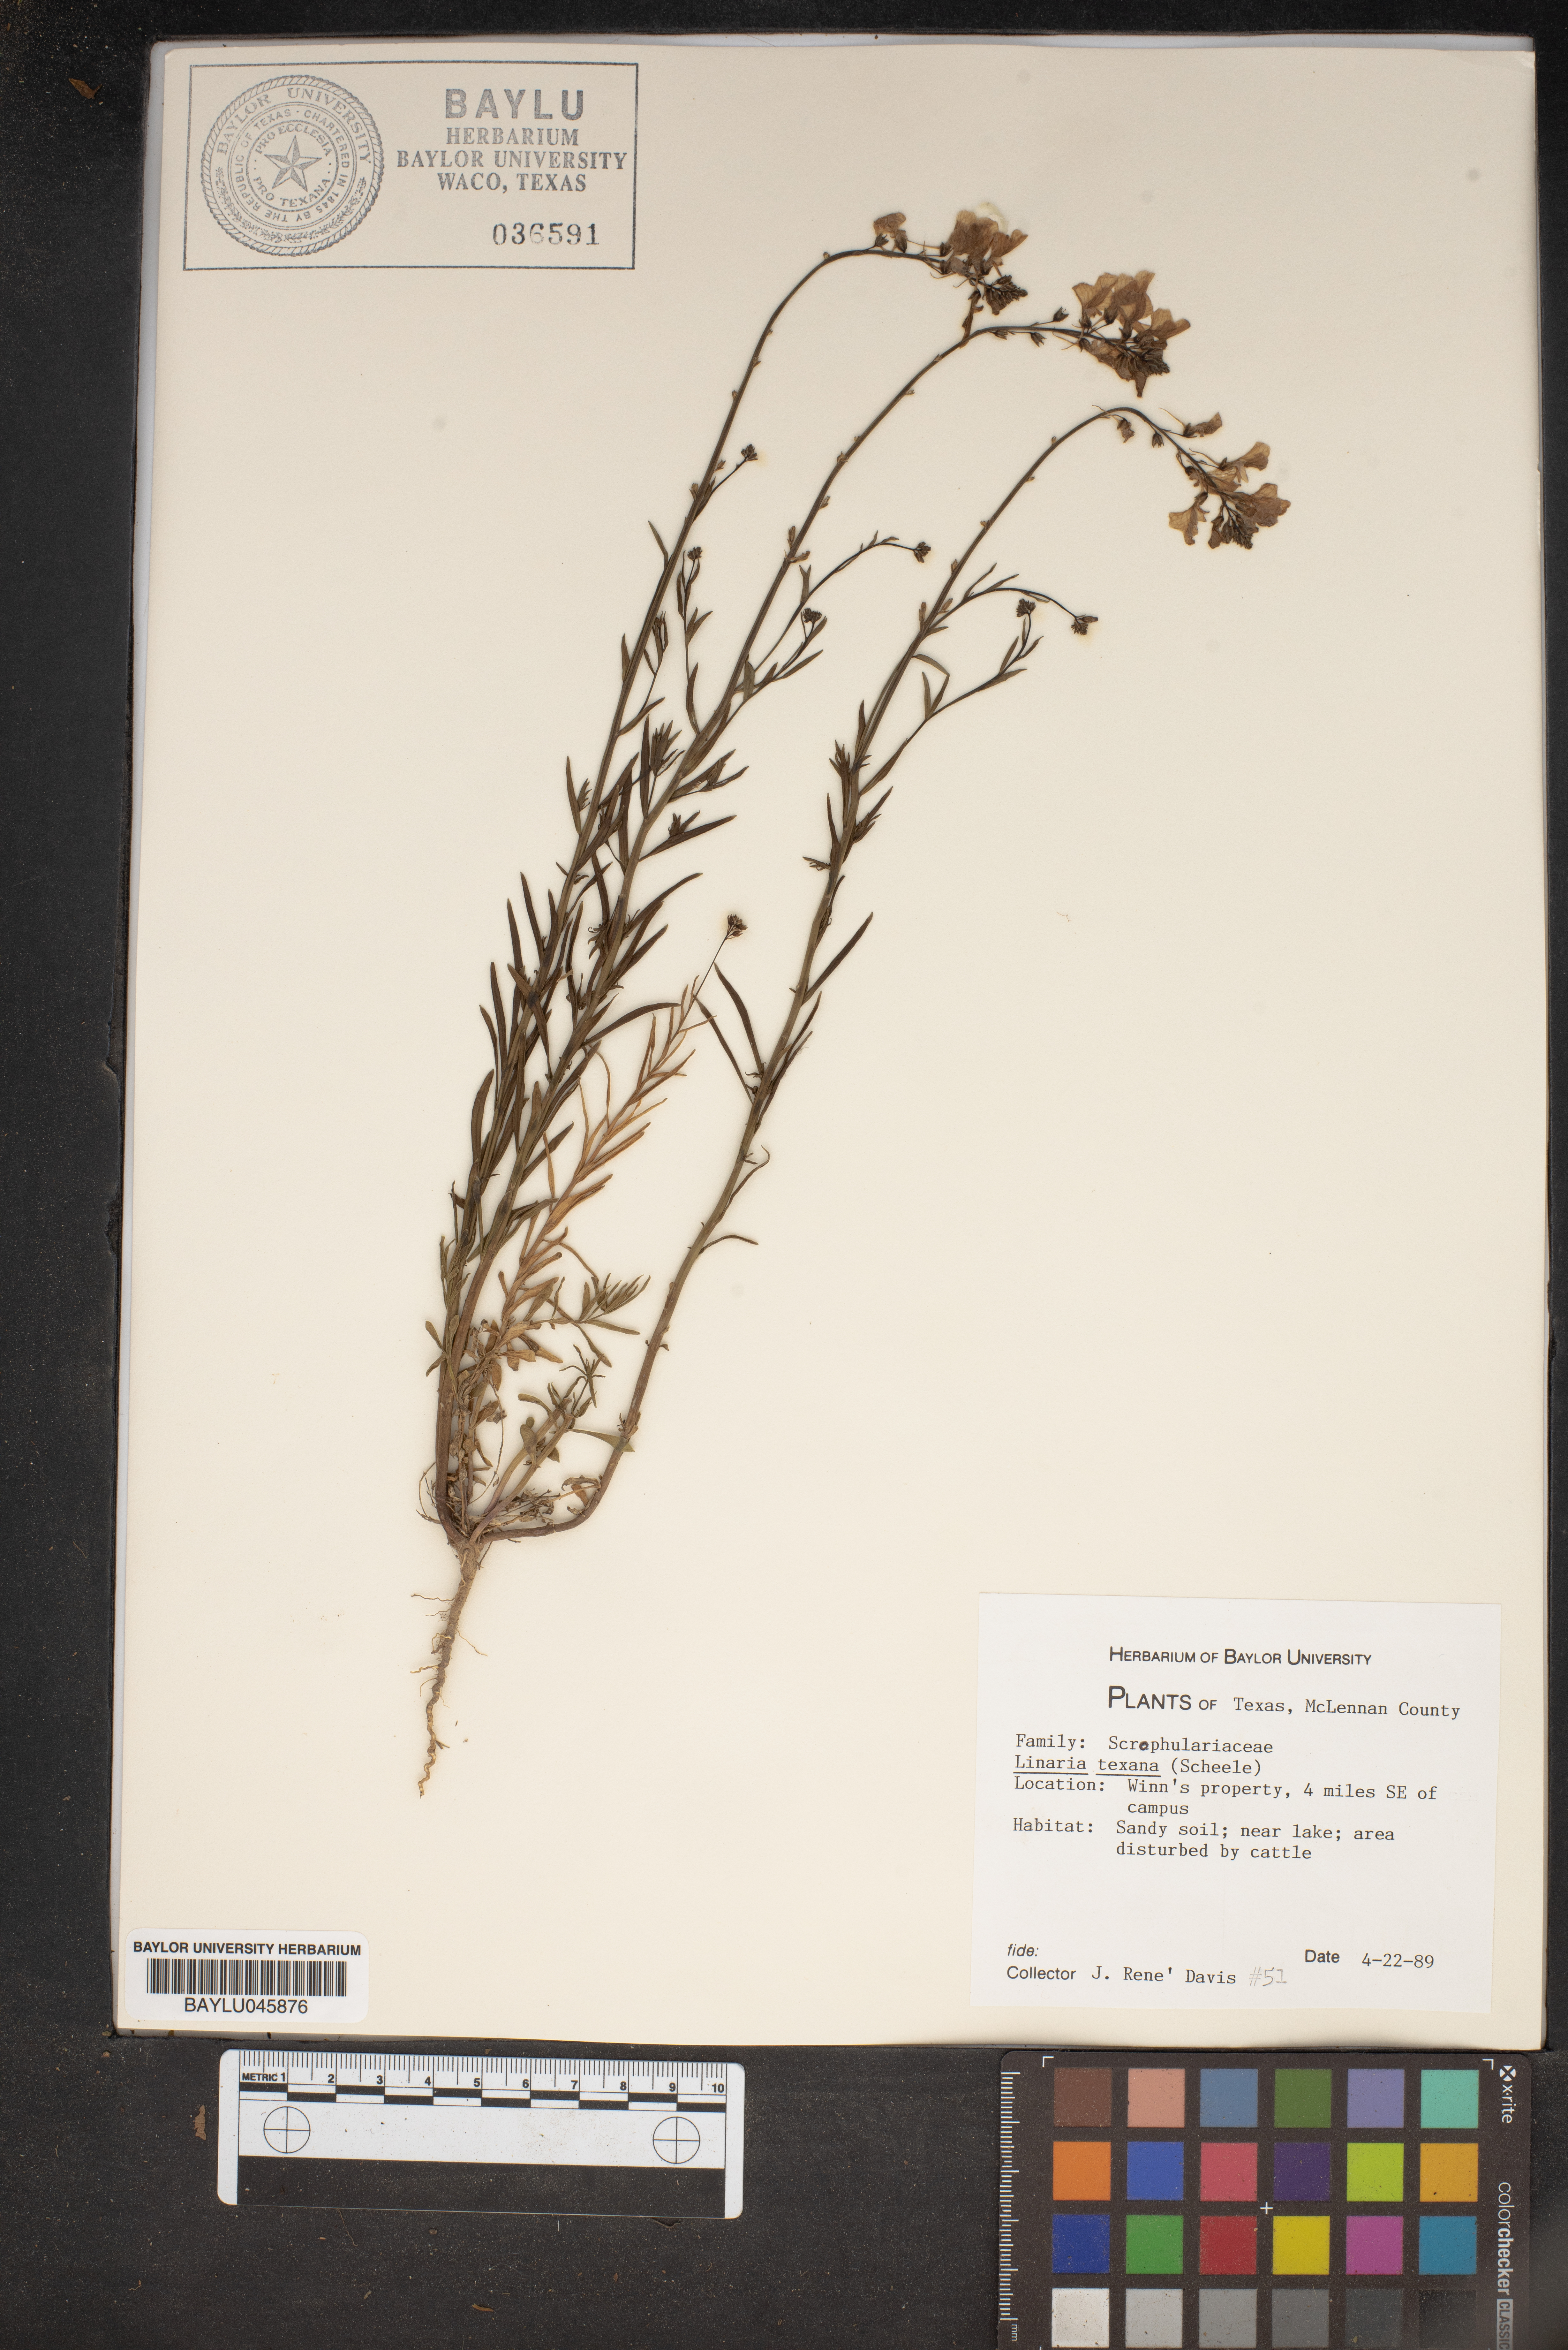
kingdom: Plantae
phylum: Tracheophyta
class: Magnoliopsida
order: Lamiales
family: Plantaginaceae
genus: Nuttallanthus
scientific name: Nuttallanthus texanus
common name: Texas toadflax
